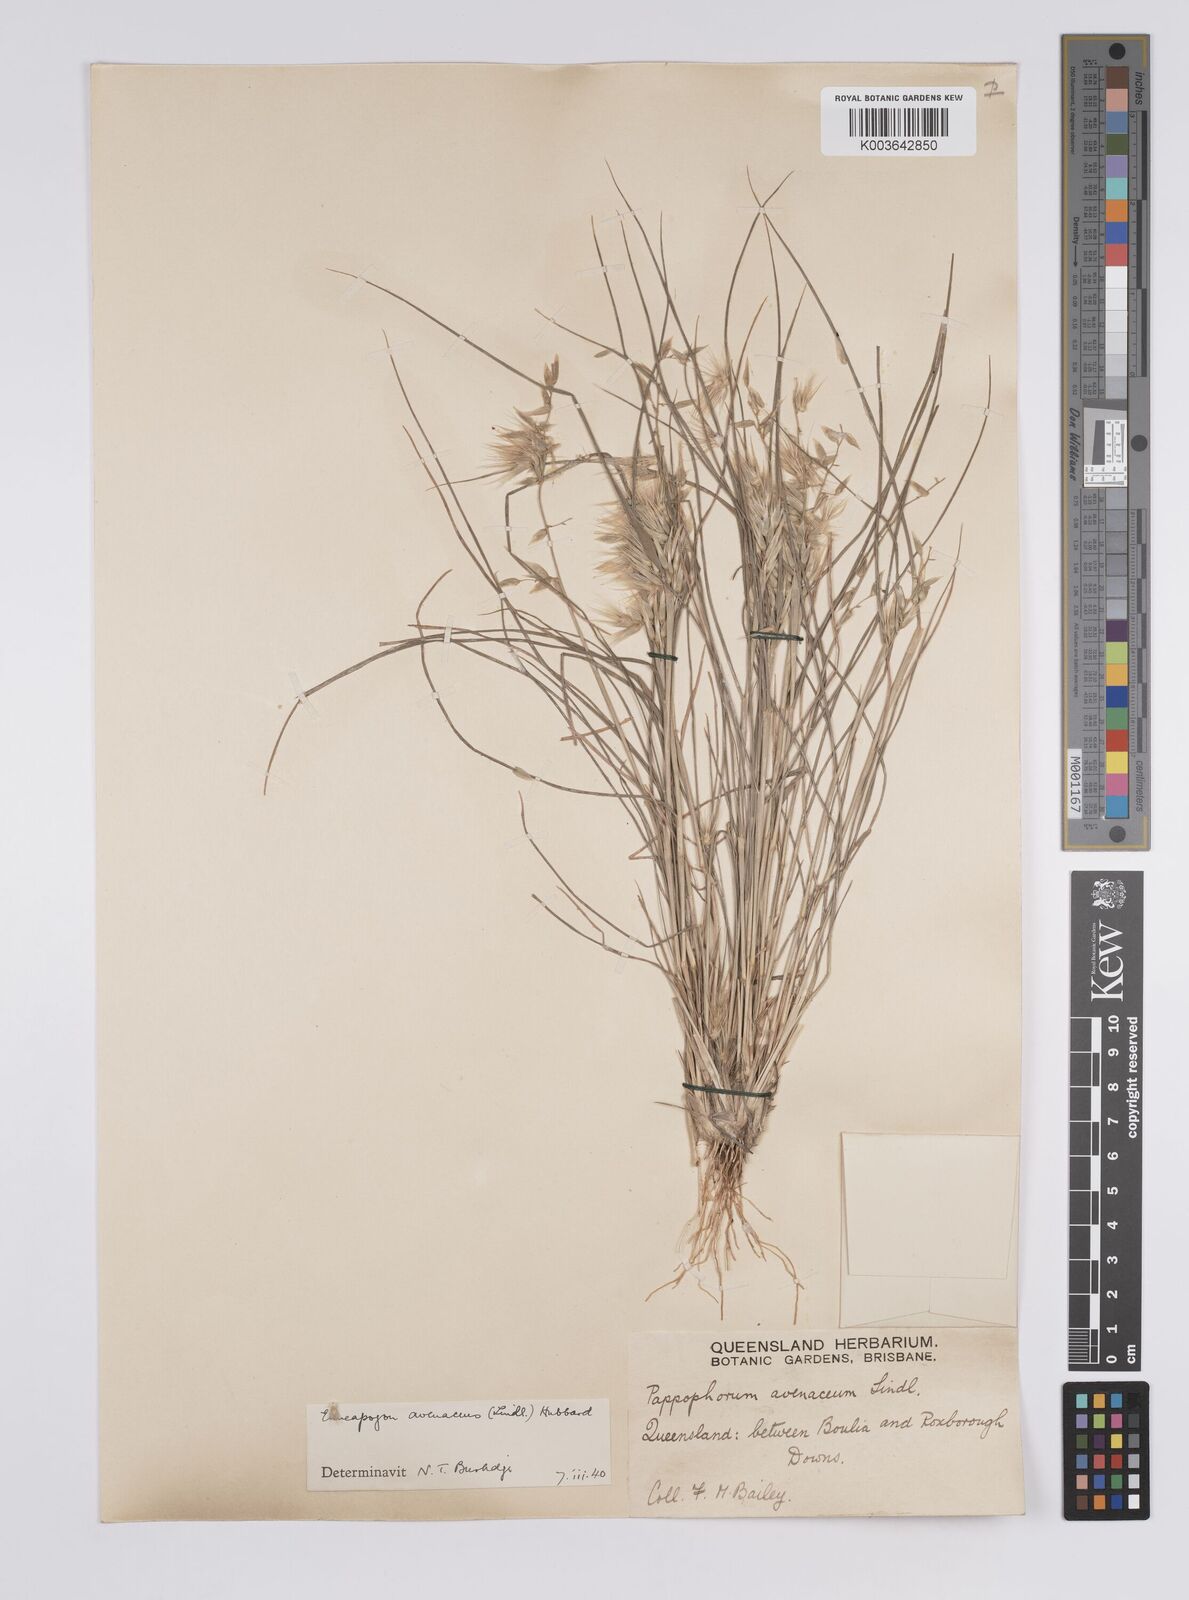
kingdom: Plantae
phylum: Tracheophyta
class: Liliopsida
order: Poales
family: Poaceae
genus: Enneapogon
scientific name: Enneapogon avenaceus
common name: Hairy oat grass
